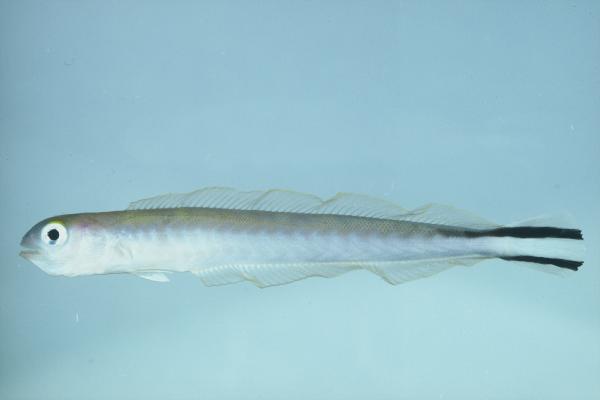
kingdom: Animalia
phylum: Chordata
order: Perciformes
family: Malacanthidae
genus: Malacanthus
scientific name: Malacanthus brevirostris
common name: Flagtail blanquillo
